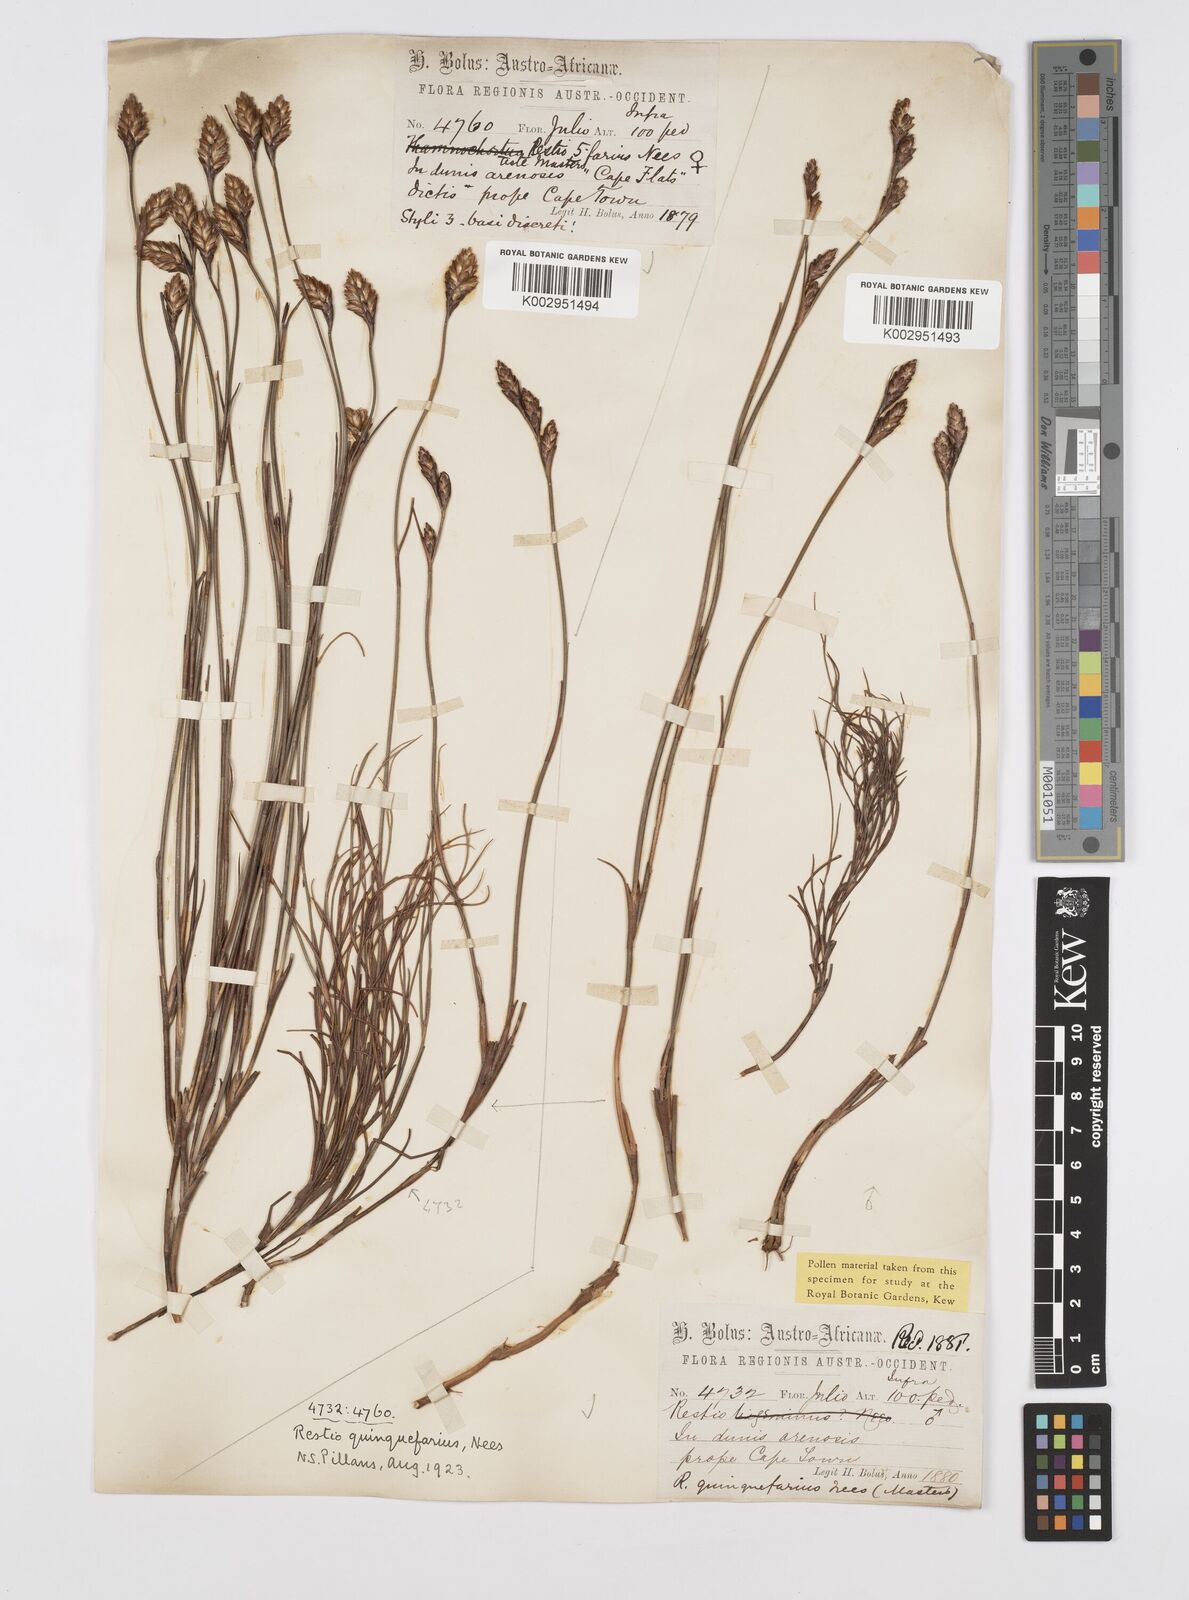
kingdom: Plantae
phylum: Tracheophyta
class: Liliopsida
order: Poales
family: Restionaceae
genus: Restio
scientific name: Restio quinquefarius
